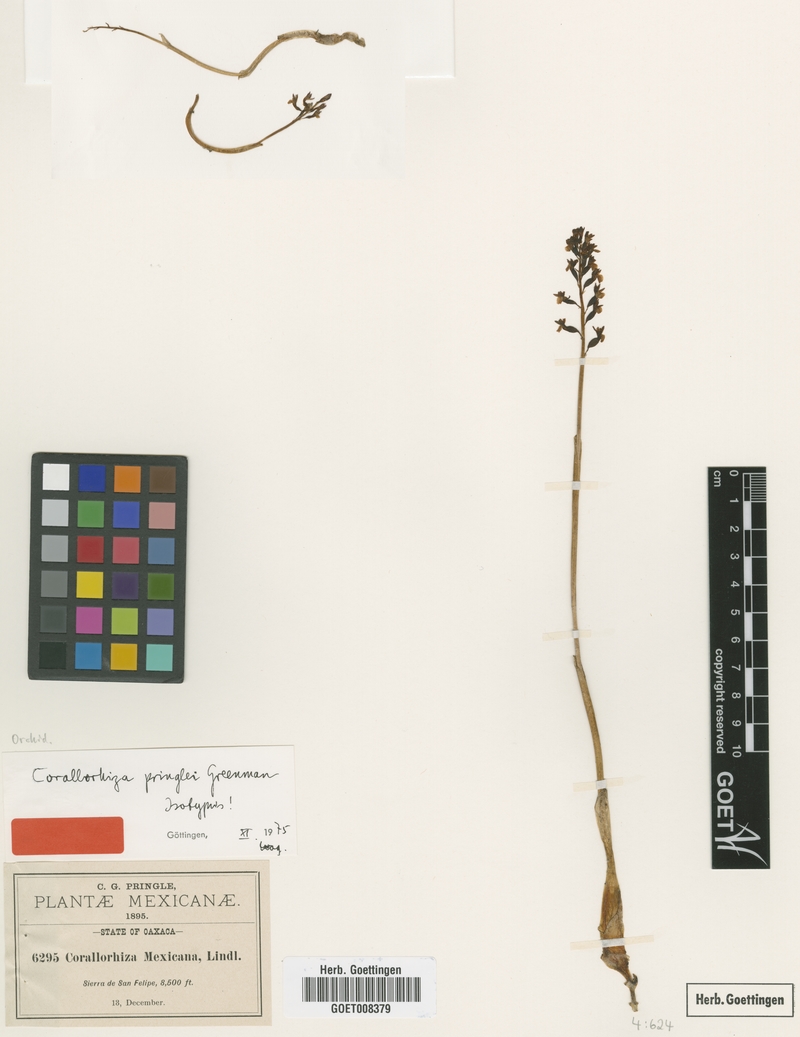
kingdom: Plantae
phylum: Tracheophyta
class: Liliopsida
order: Asparagales
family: Orchidaceae
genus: Corallorhiza
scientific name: Corallorhiza odontorhiza
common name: Autumn coralroot
